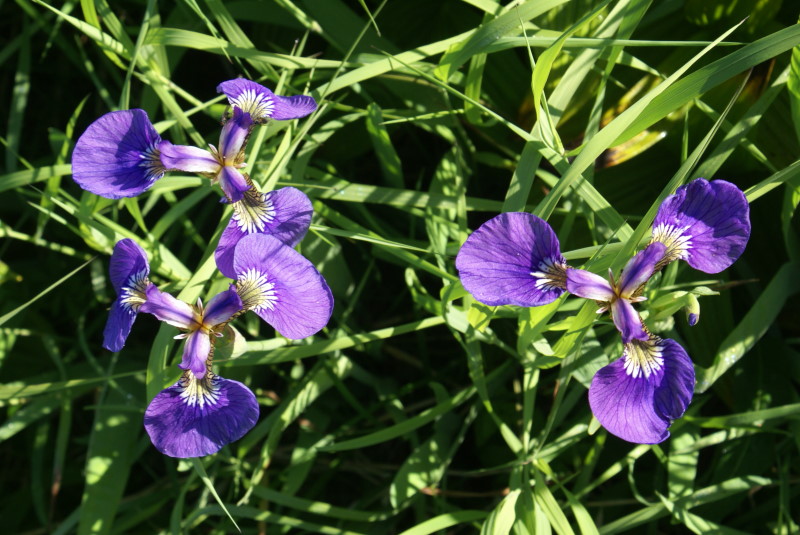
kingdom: Plantae
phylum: Tracheophyta
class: Liliopsida
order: Asparagales
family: Iridaceae
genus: Iris
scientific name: Iris setosa
